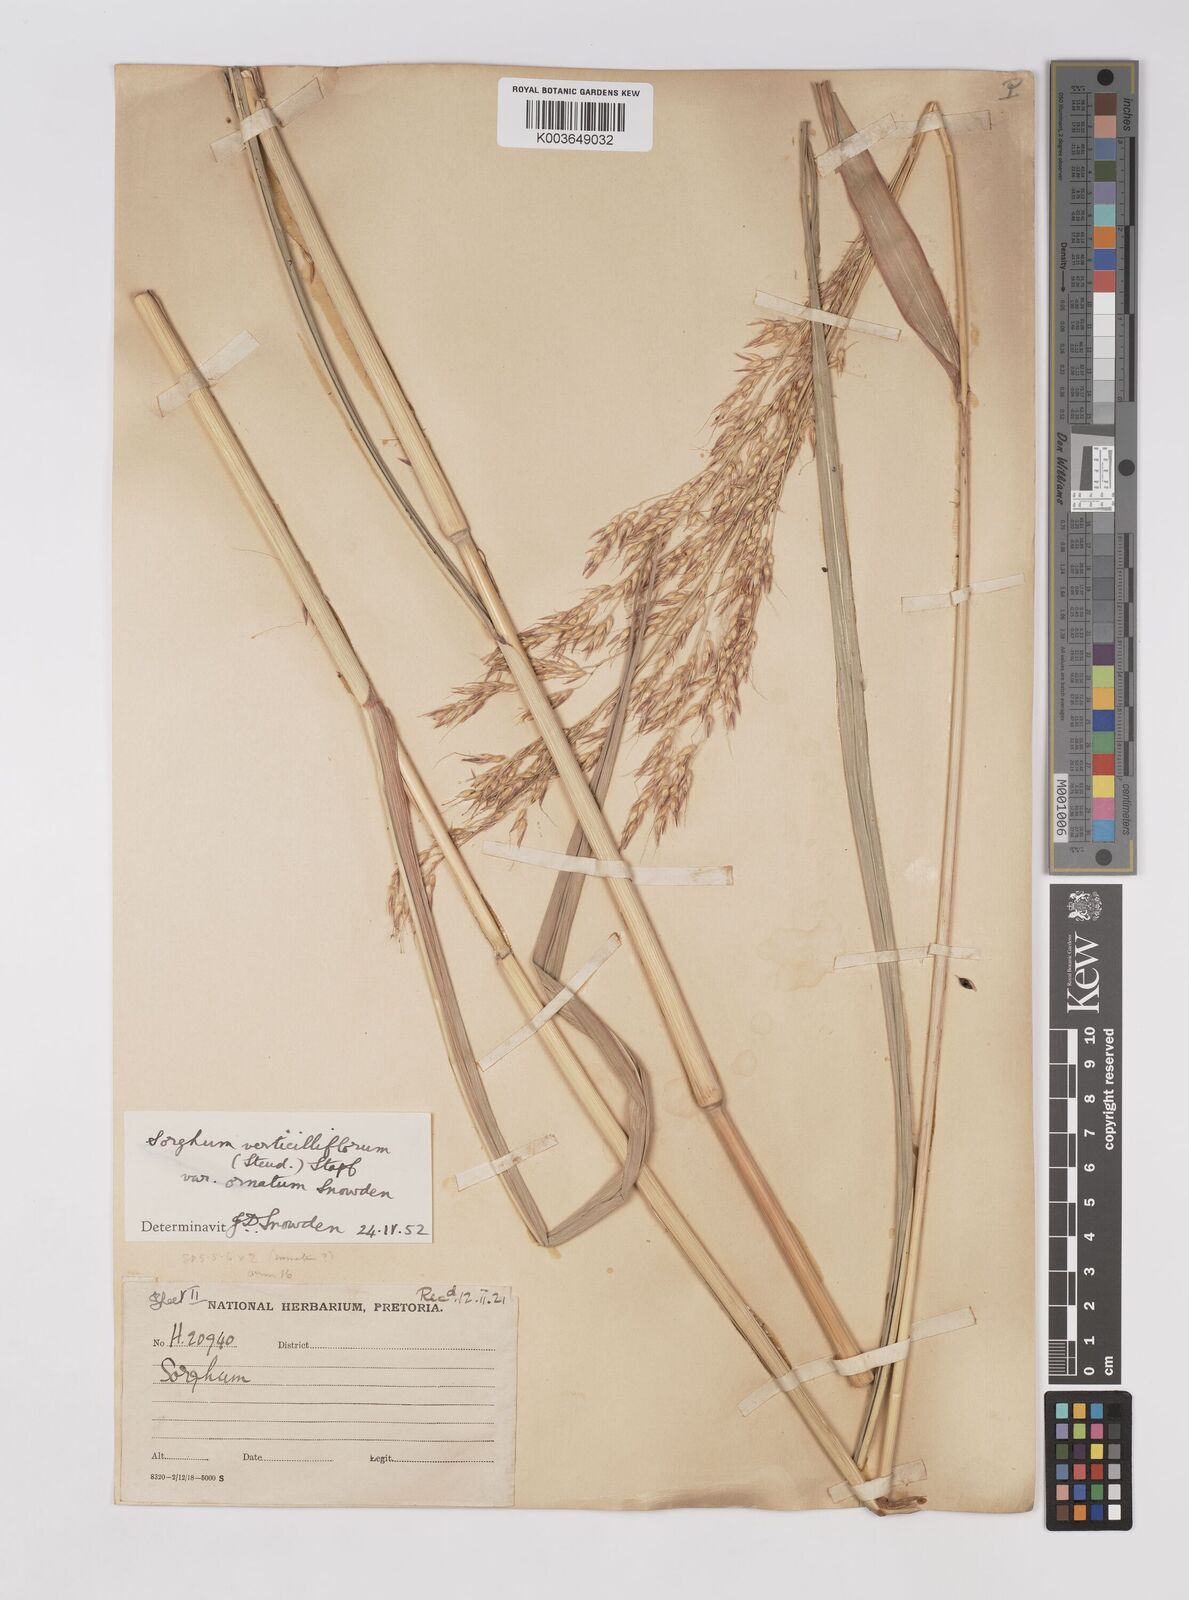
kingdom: Plantae
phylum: Tracheophyta
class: Liliopsida
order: Poales
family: Poaceae
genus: Sorghum
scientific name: Sorghum arundinaceum
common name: Sorghum
